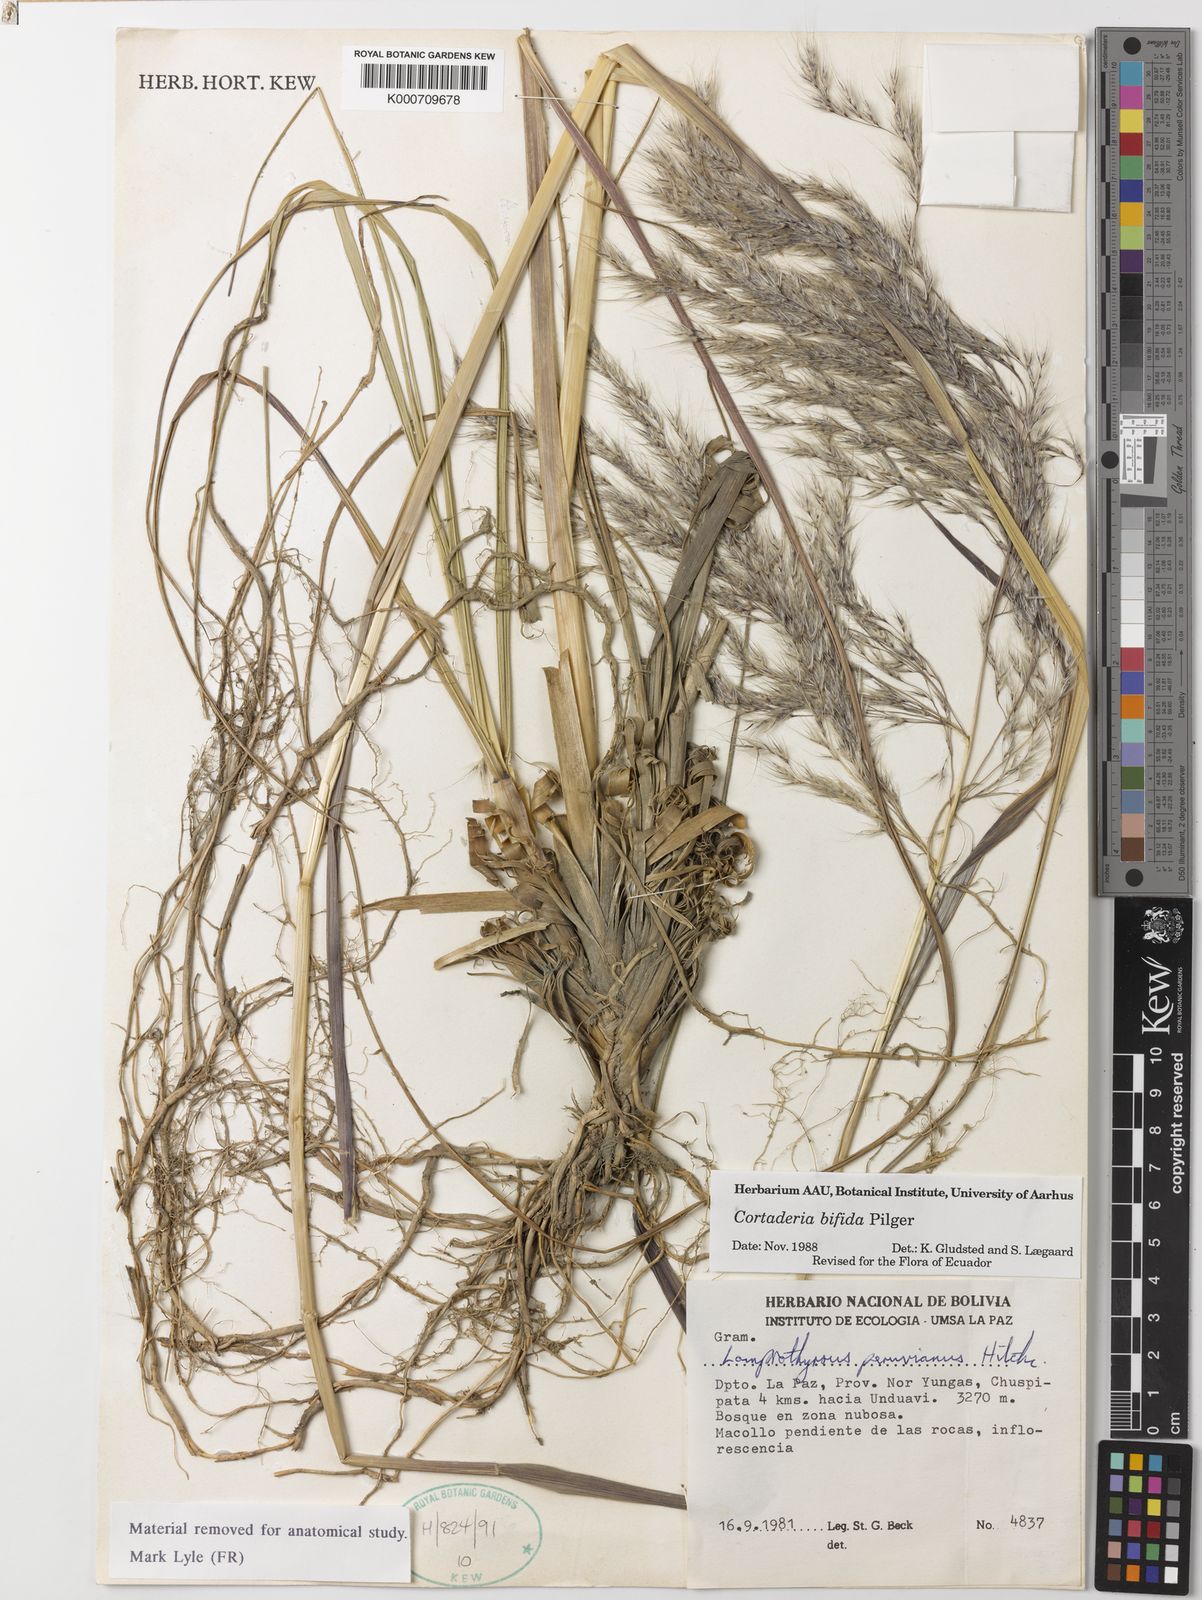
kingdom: Plantae
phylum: Tracheophyta
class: Liliopsida
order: Poales
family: Poaceae
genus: Cortaderia
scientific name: Cortaderia bifida
